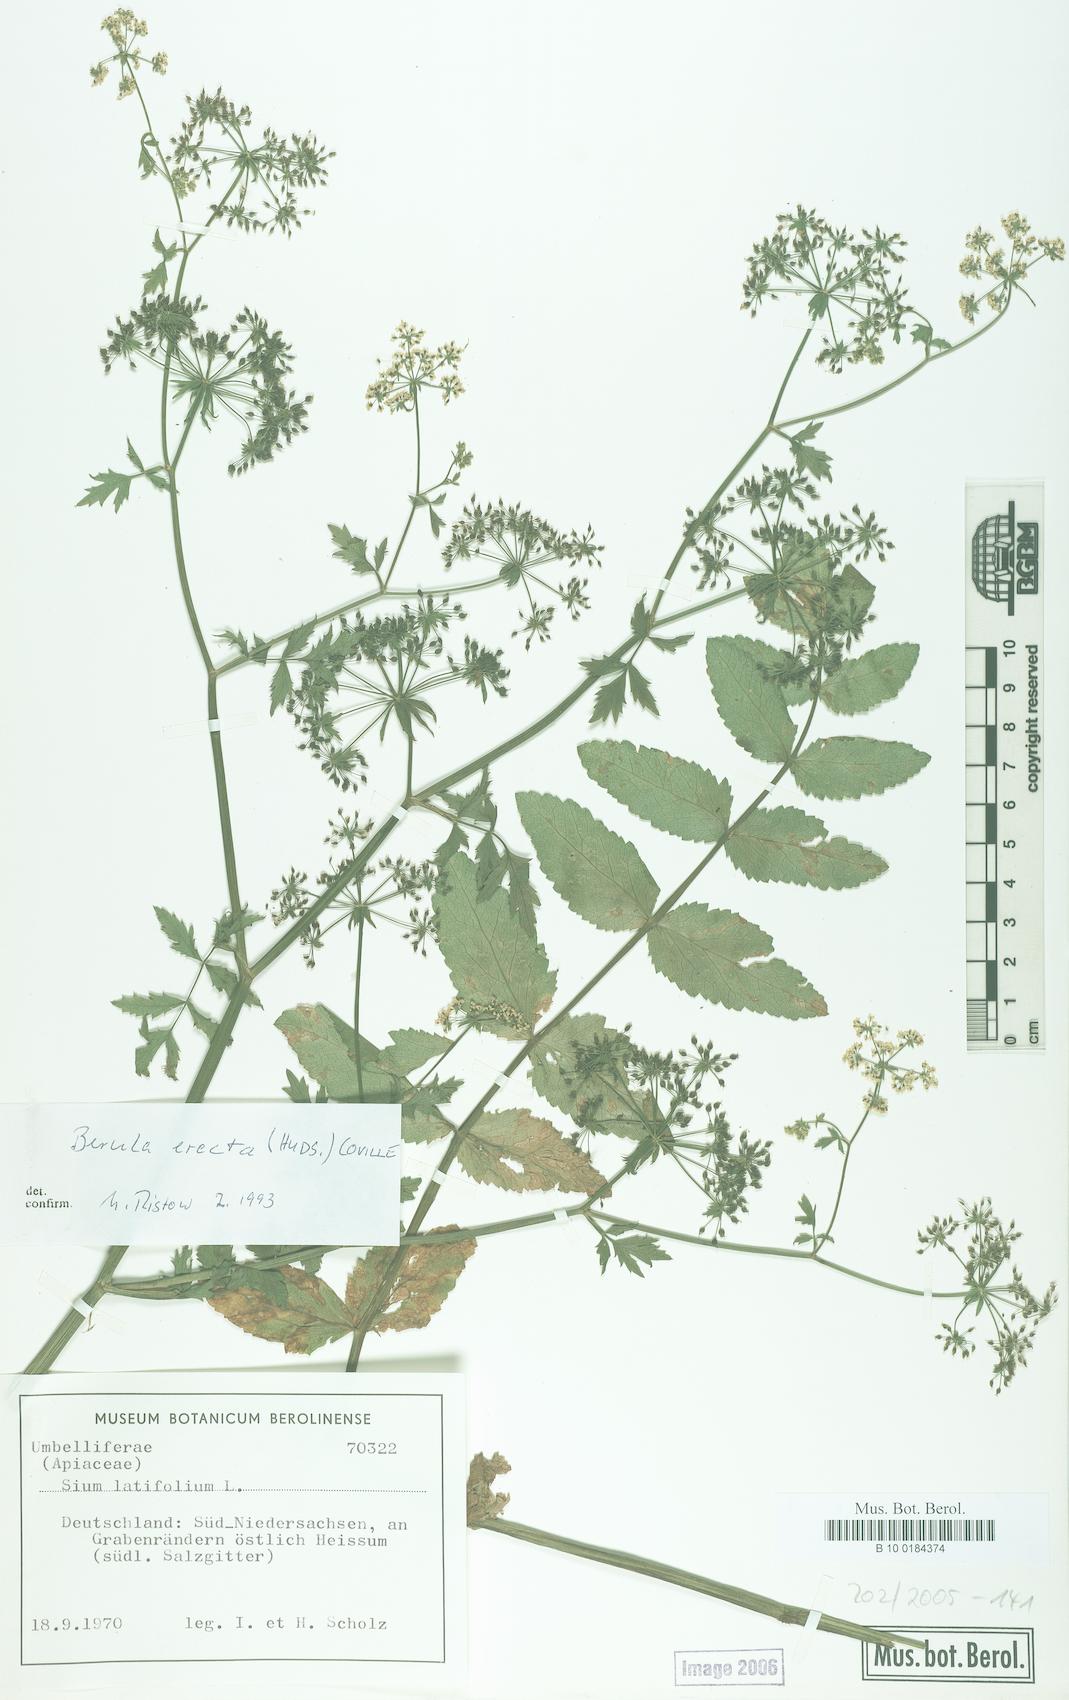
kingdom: Plantae
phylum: Tracheophyta
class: Magnoliopsida
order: Apiales
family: Apiaceae
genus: Berula
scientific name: Berula erecta
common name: Lesser water-parsnip
